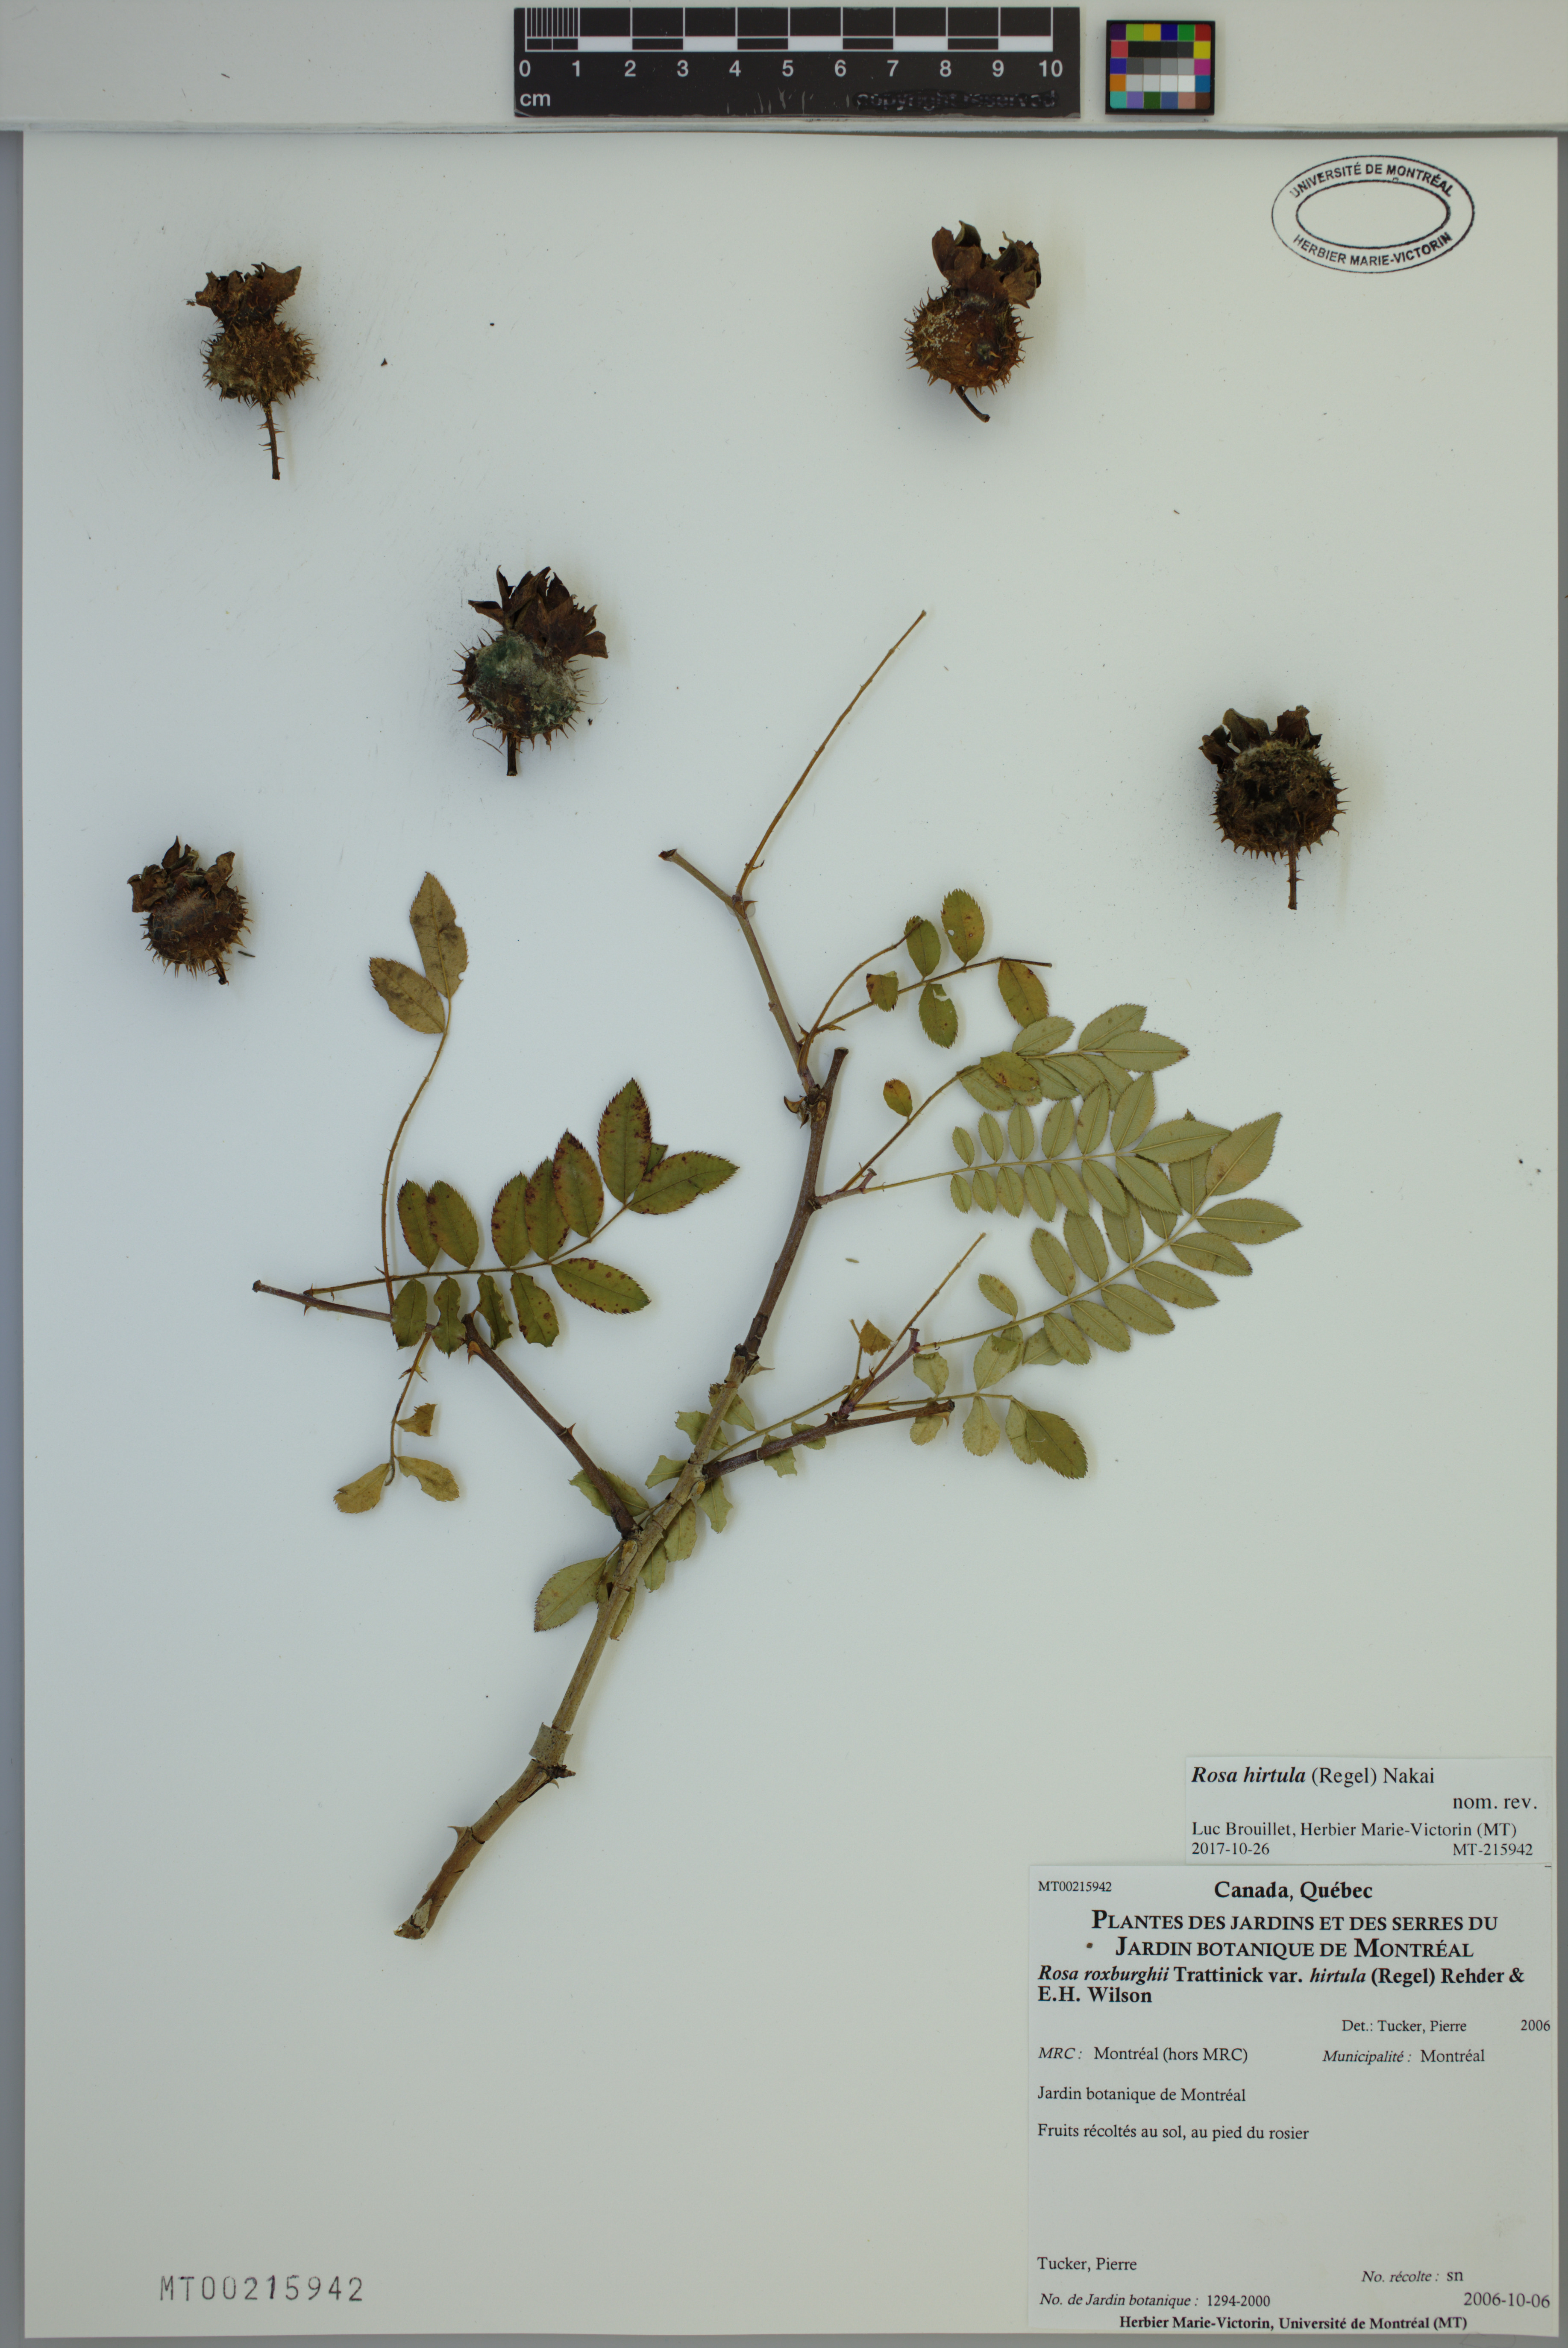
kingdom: Plantae
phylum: Tracheophyta
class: Magnoliopsida
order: Rosales
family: Rosaceae
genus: Rosa
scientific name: Rosa hirtula
